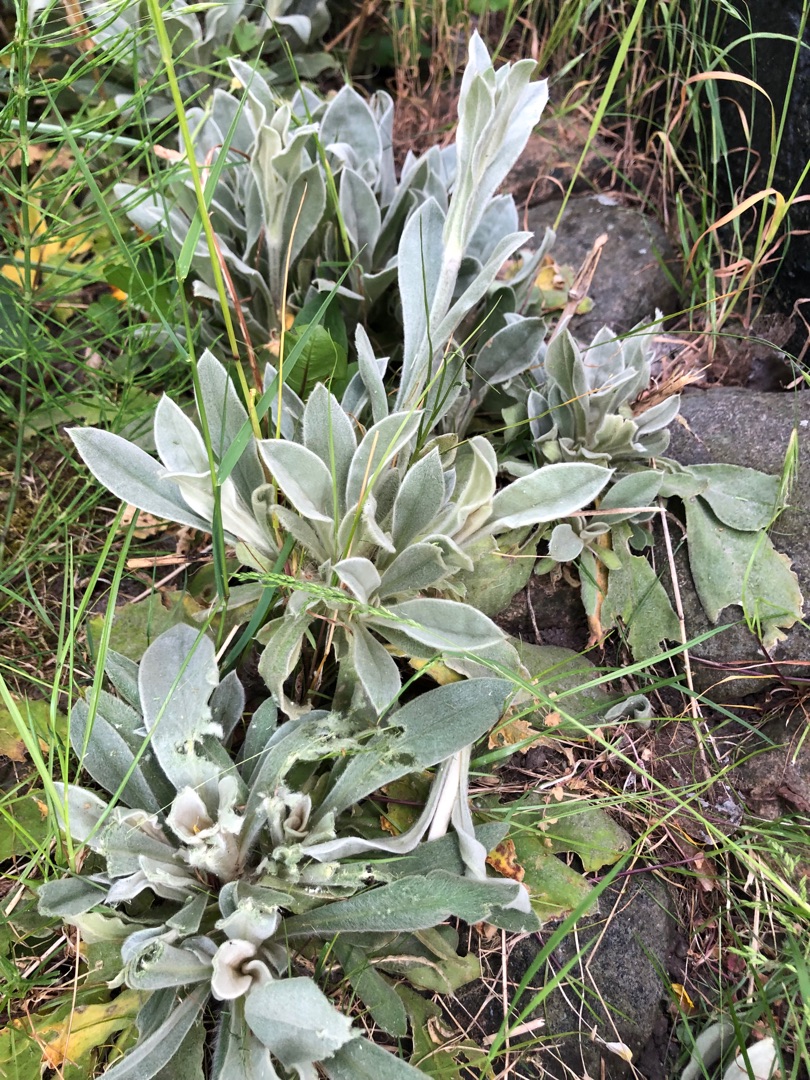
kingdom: Plantae
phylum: Tracheophyta
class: Magnoliopsida
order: Caryophyllales
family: Caryophyllaceae
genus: Silene
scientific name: Silene coronaria
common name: Fiksernellike
